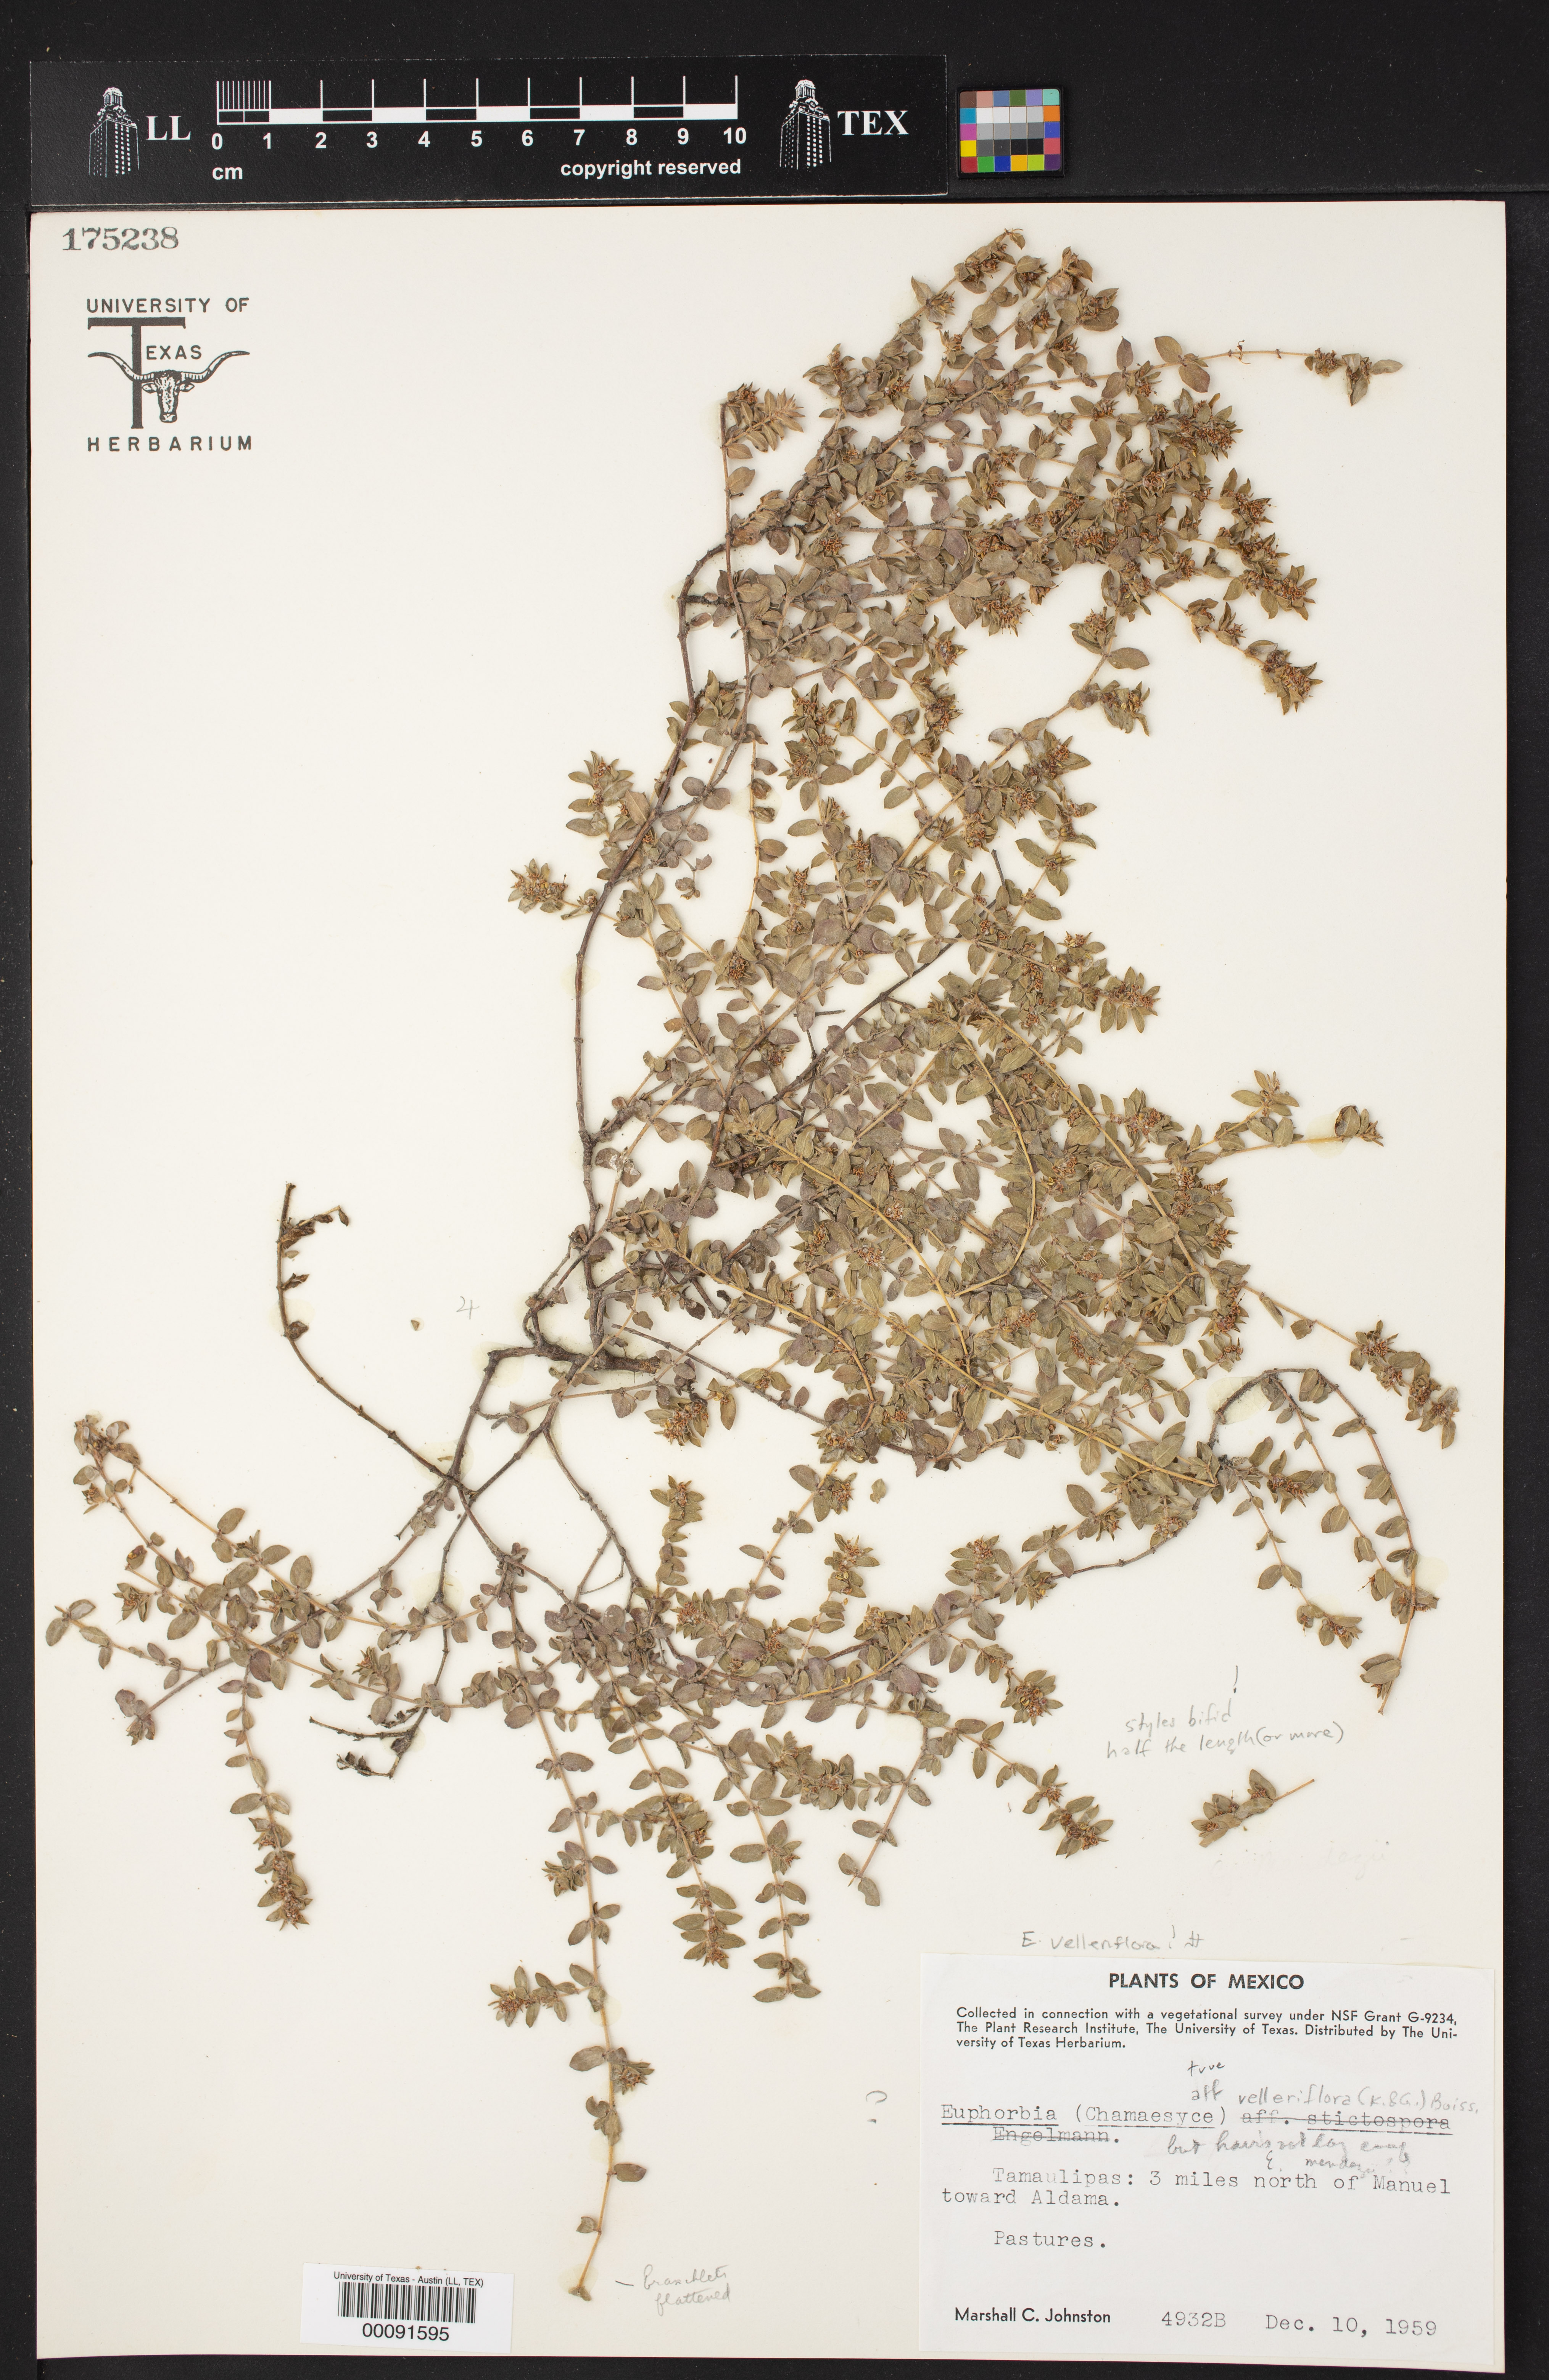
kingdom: Plantae
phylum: Tracheophyta
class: Magnoliopsida
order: Malpighiales
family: Euphorbiaceae
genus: Euphorbia
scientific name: Euphorbia velleriflora
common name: Caliche sandmat
